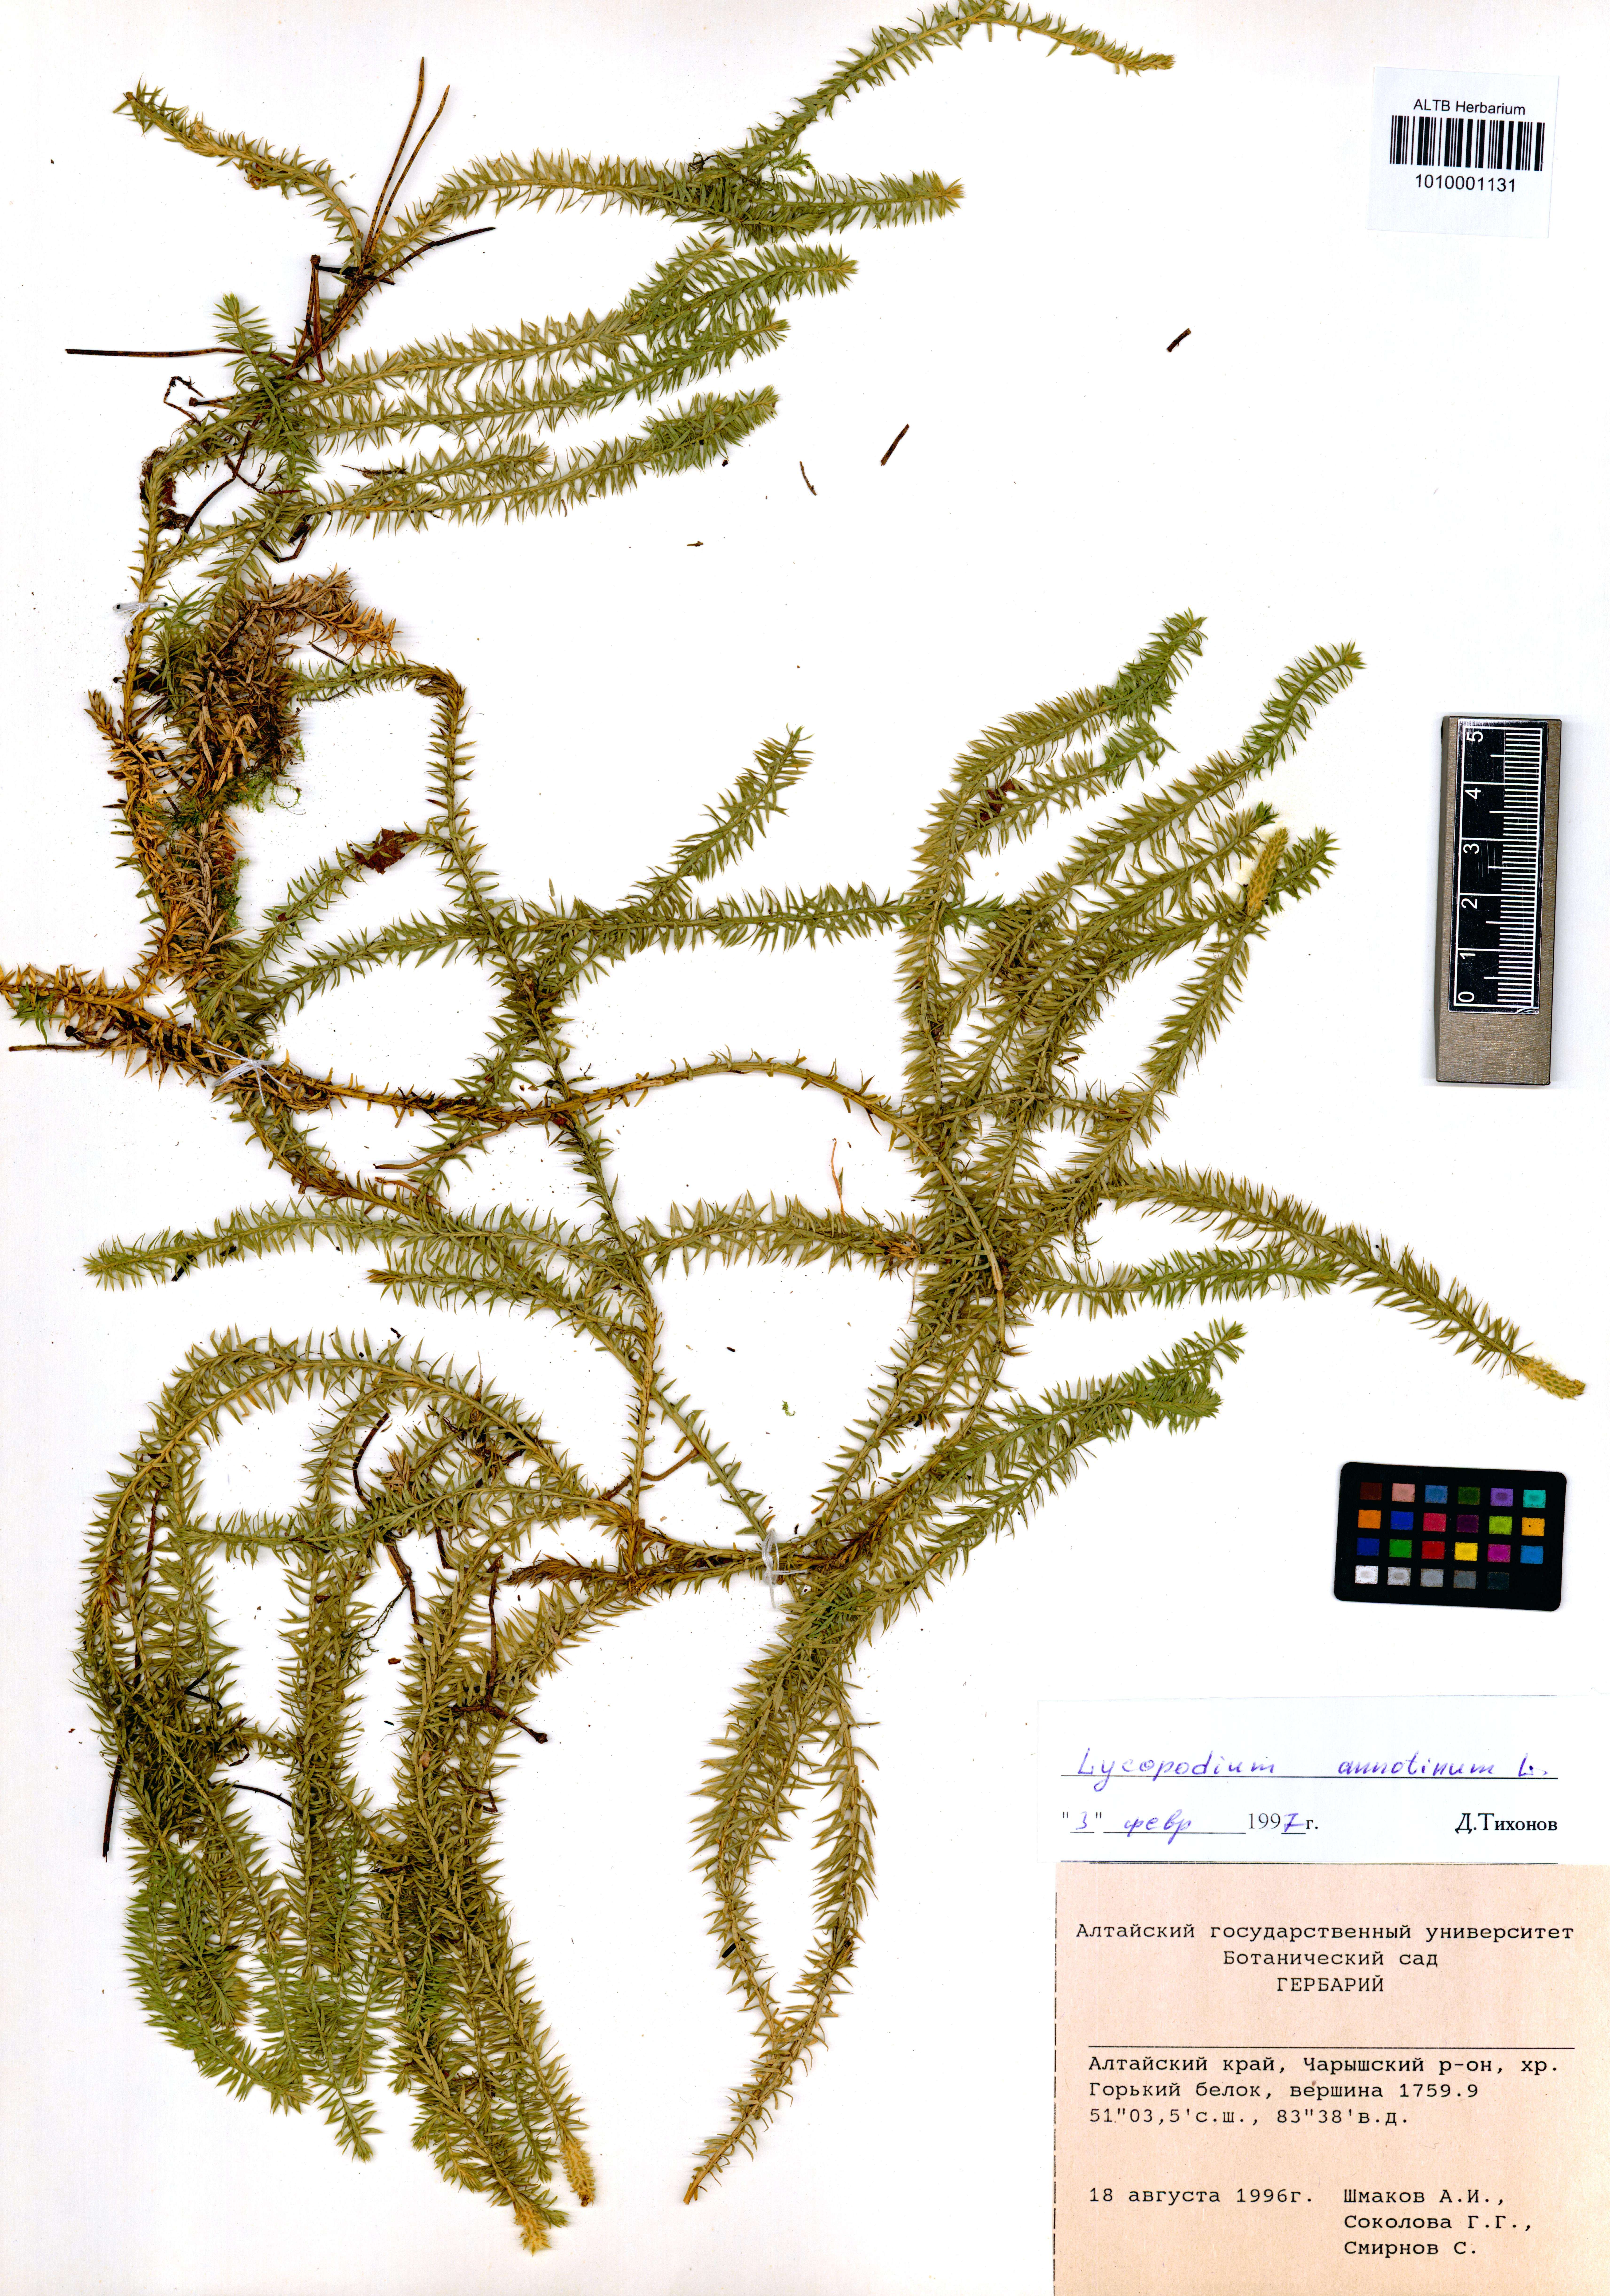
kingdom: Plantae
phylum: Tracheophyta
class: Lycopodiopsida
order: Lycopodiales
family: Lycopodiaceae
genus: Spinulum
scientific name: Spinulum annotinum
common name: Interrupted club-moss
